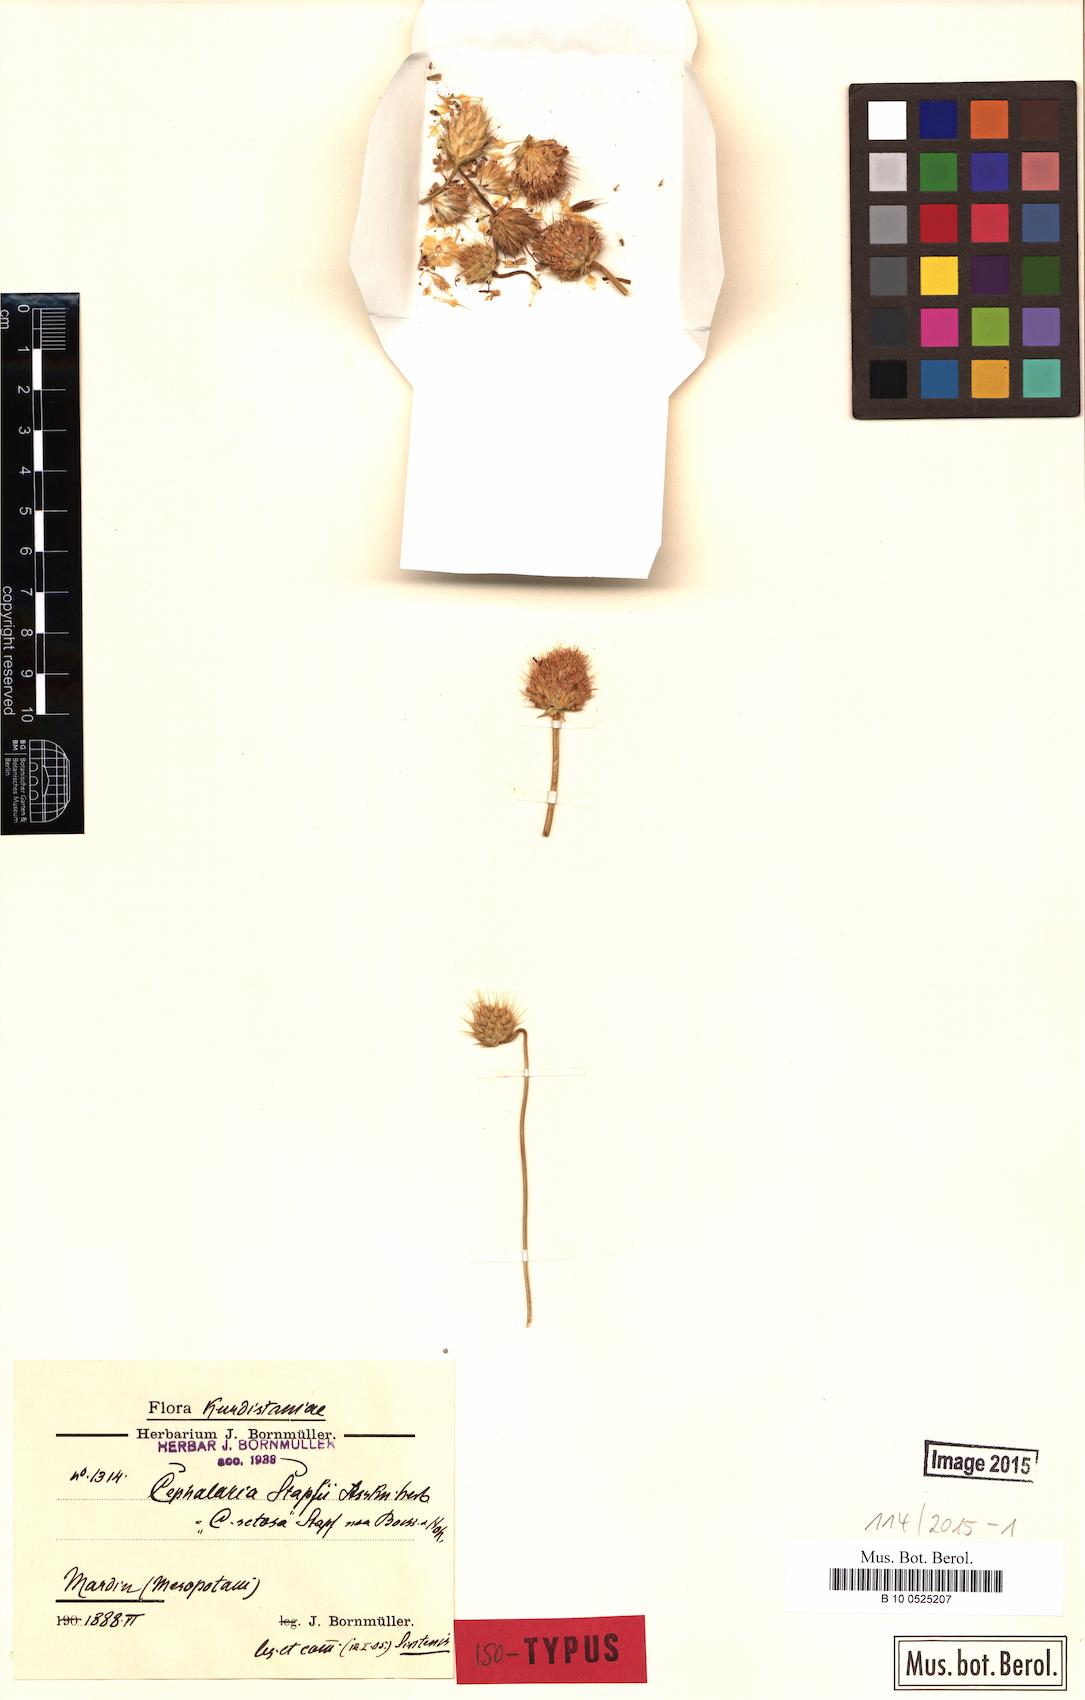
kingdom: Plantae
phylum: Tracheophyta
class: Magnoliopsida
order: Dipsacales
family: Caprifoliaceae
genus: Cephalaria
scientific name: Cephalaria stapfii
